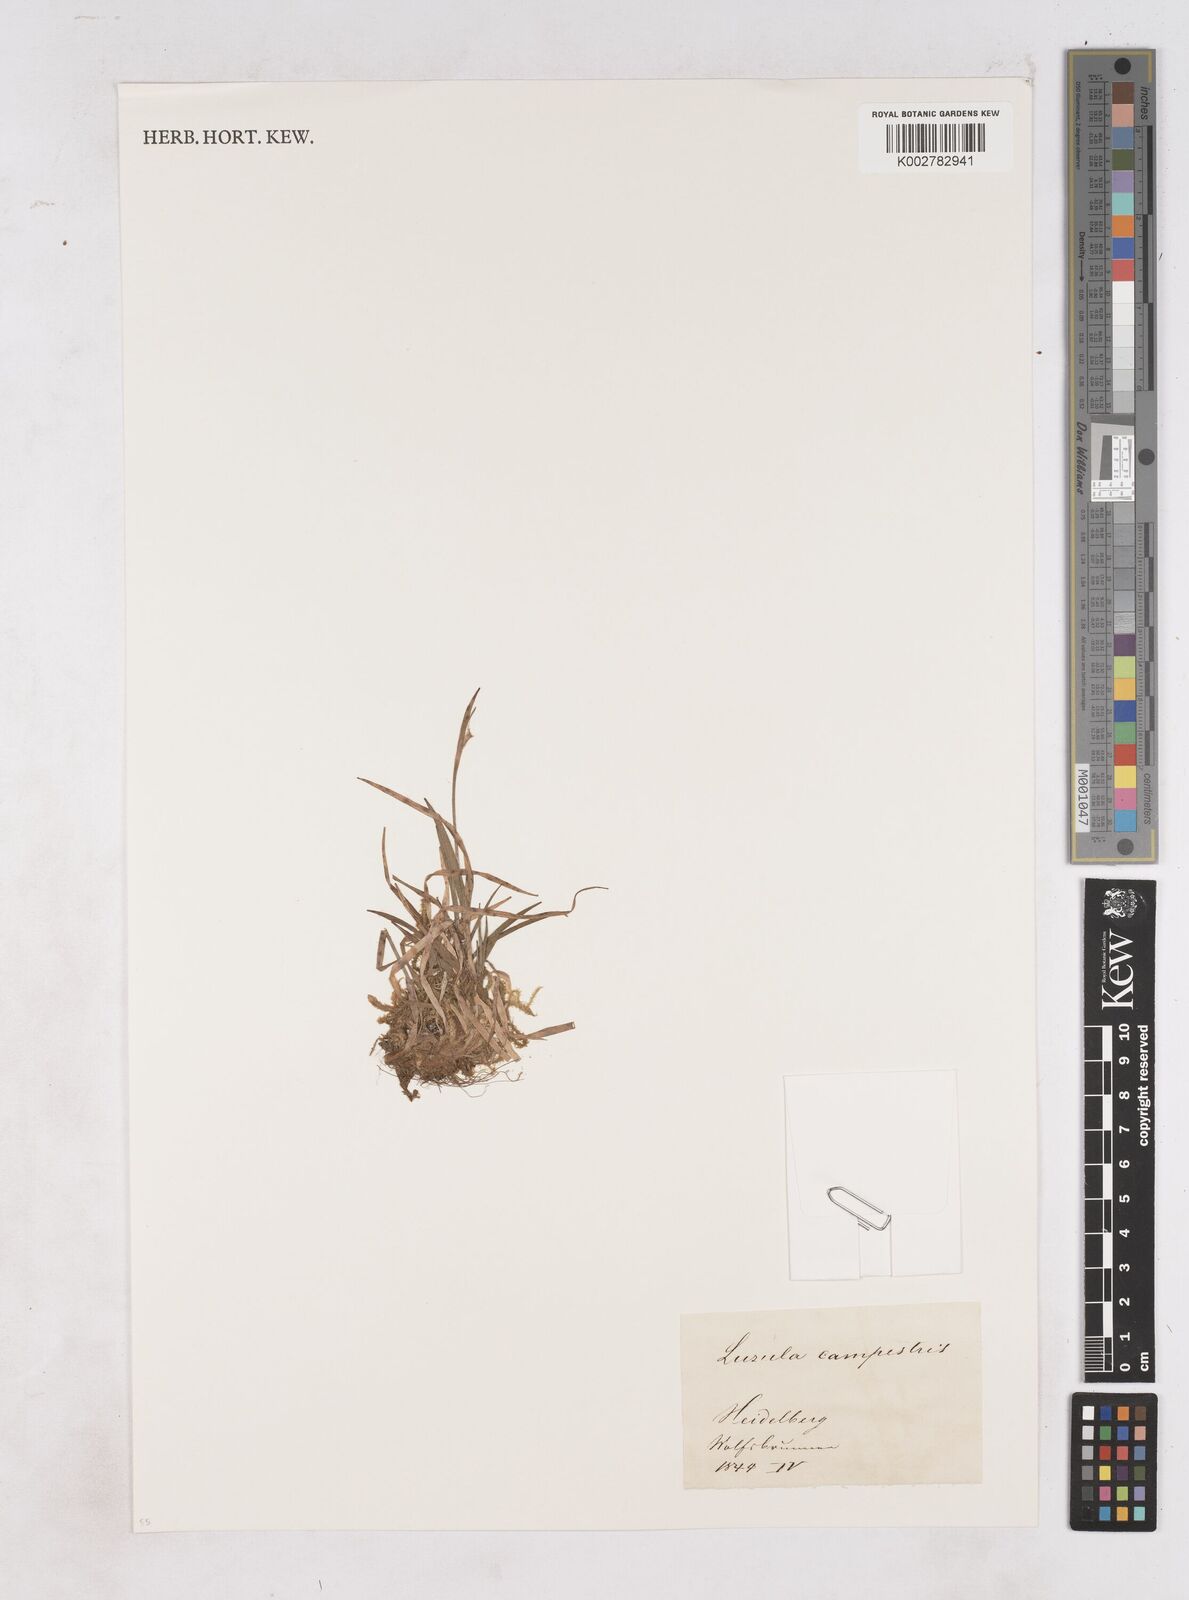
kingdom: Plantae
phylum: Tracheophyta
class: Liliopsida
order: Poales
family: Juncaceae
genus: Luzula
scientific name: Luzula campestris
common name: Field wood-rush
